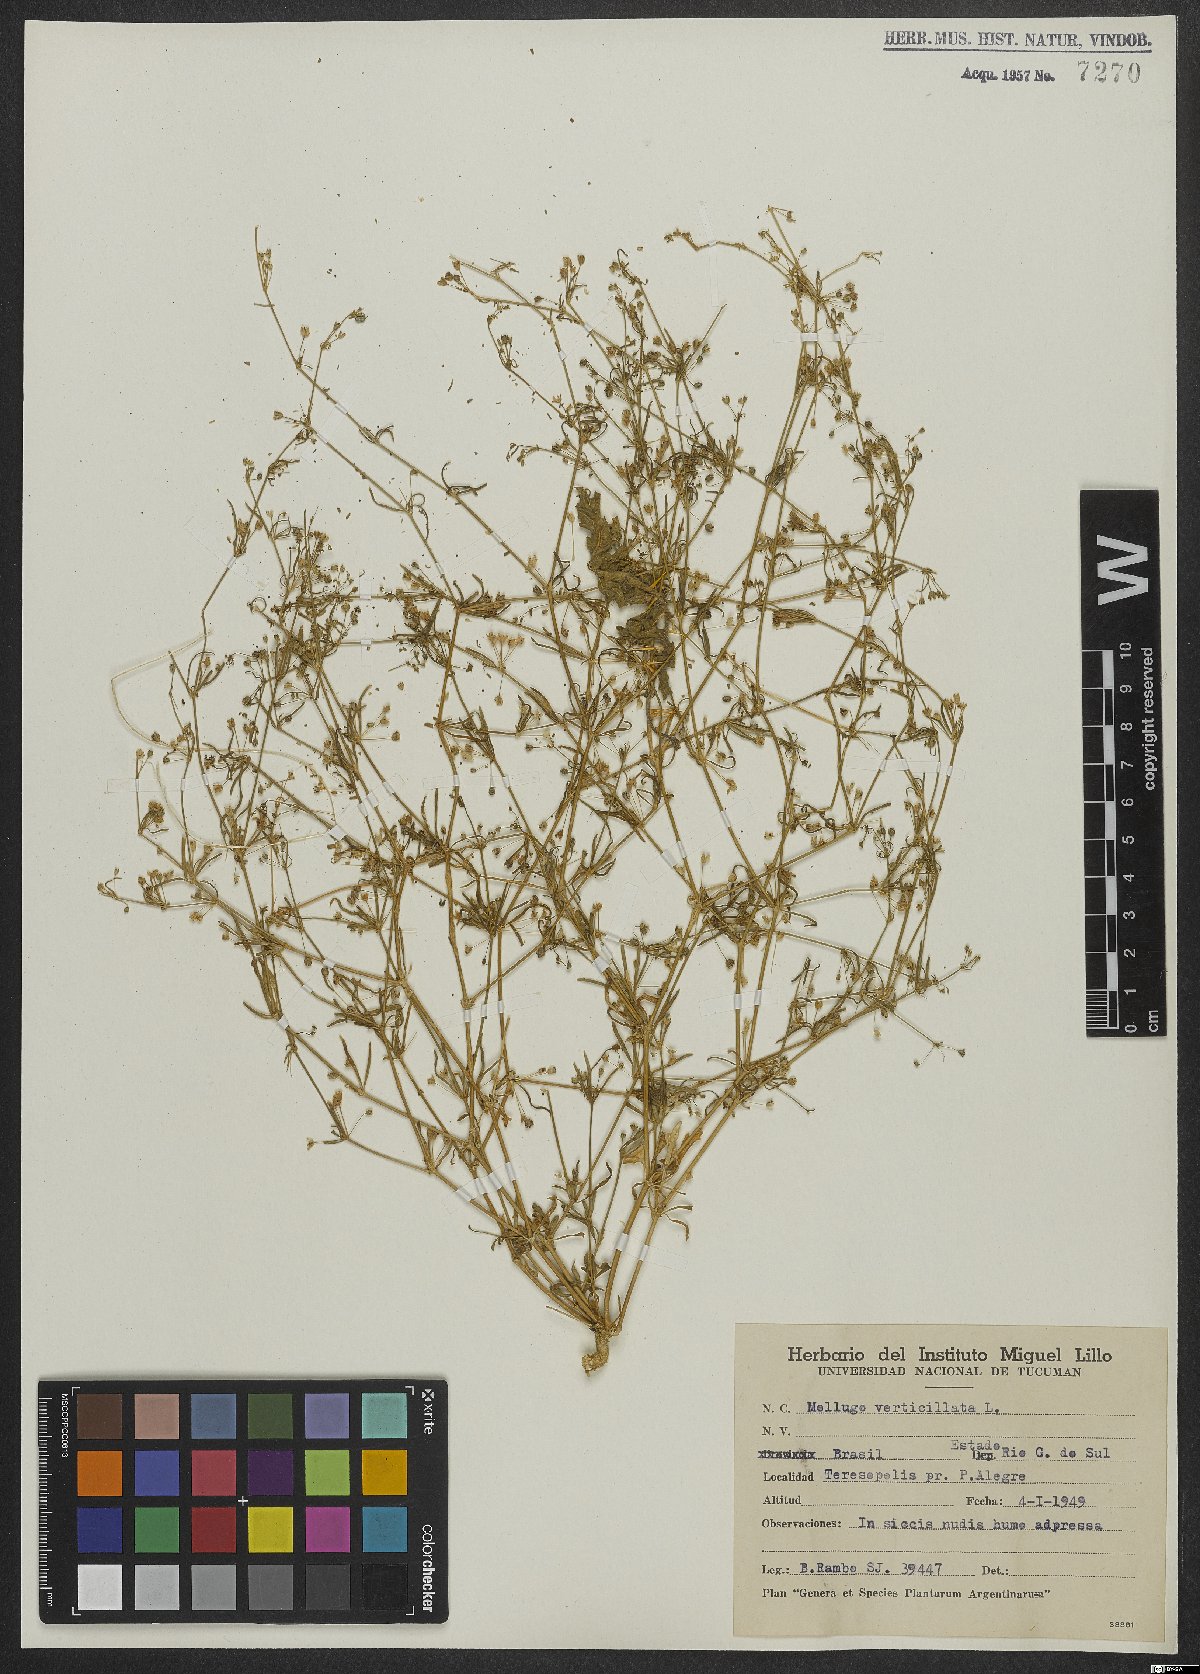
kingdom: Plantae
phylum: Tracheophyta
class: Magnoliopsida
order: Caryophyllales
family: Molluginaceae
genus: Mollugo
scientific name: Mollugo verticillata
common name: Green carpetweed
